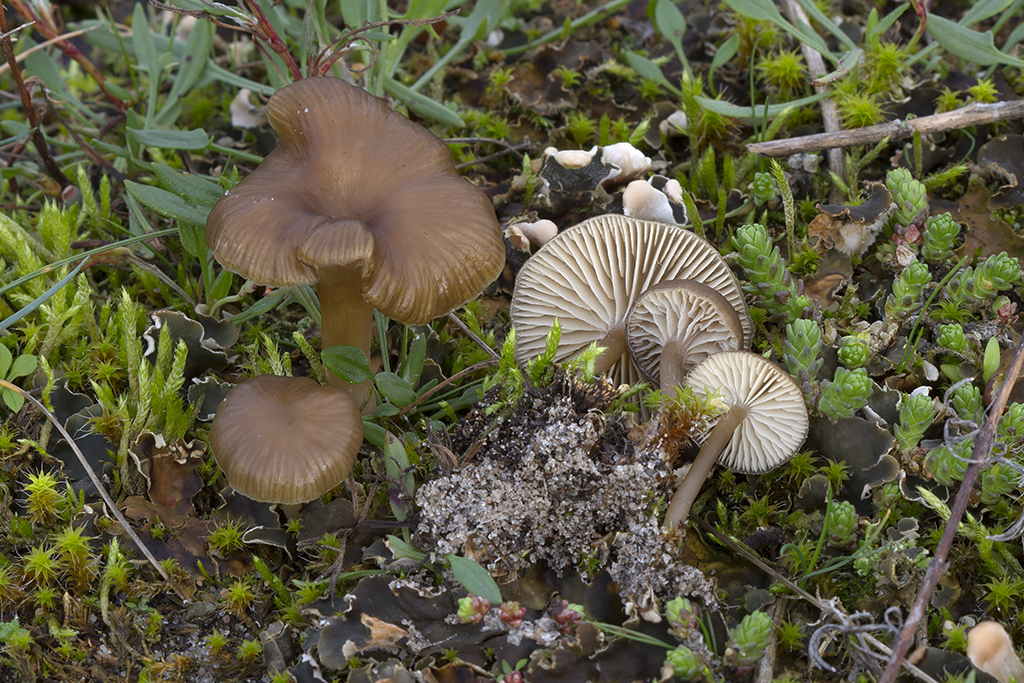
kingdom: Fungi
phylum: Basidiomycota
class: Agaricomycetes
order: Agaricales
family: Tricholomataceae
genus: Gamundia
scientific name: Gamundia xerophila
